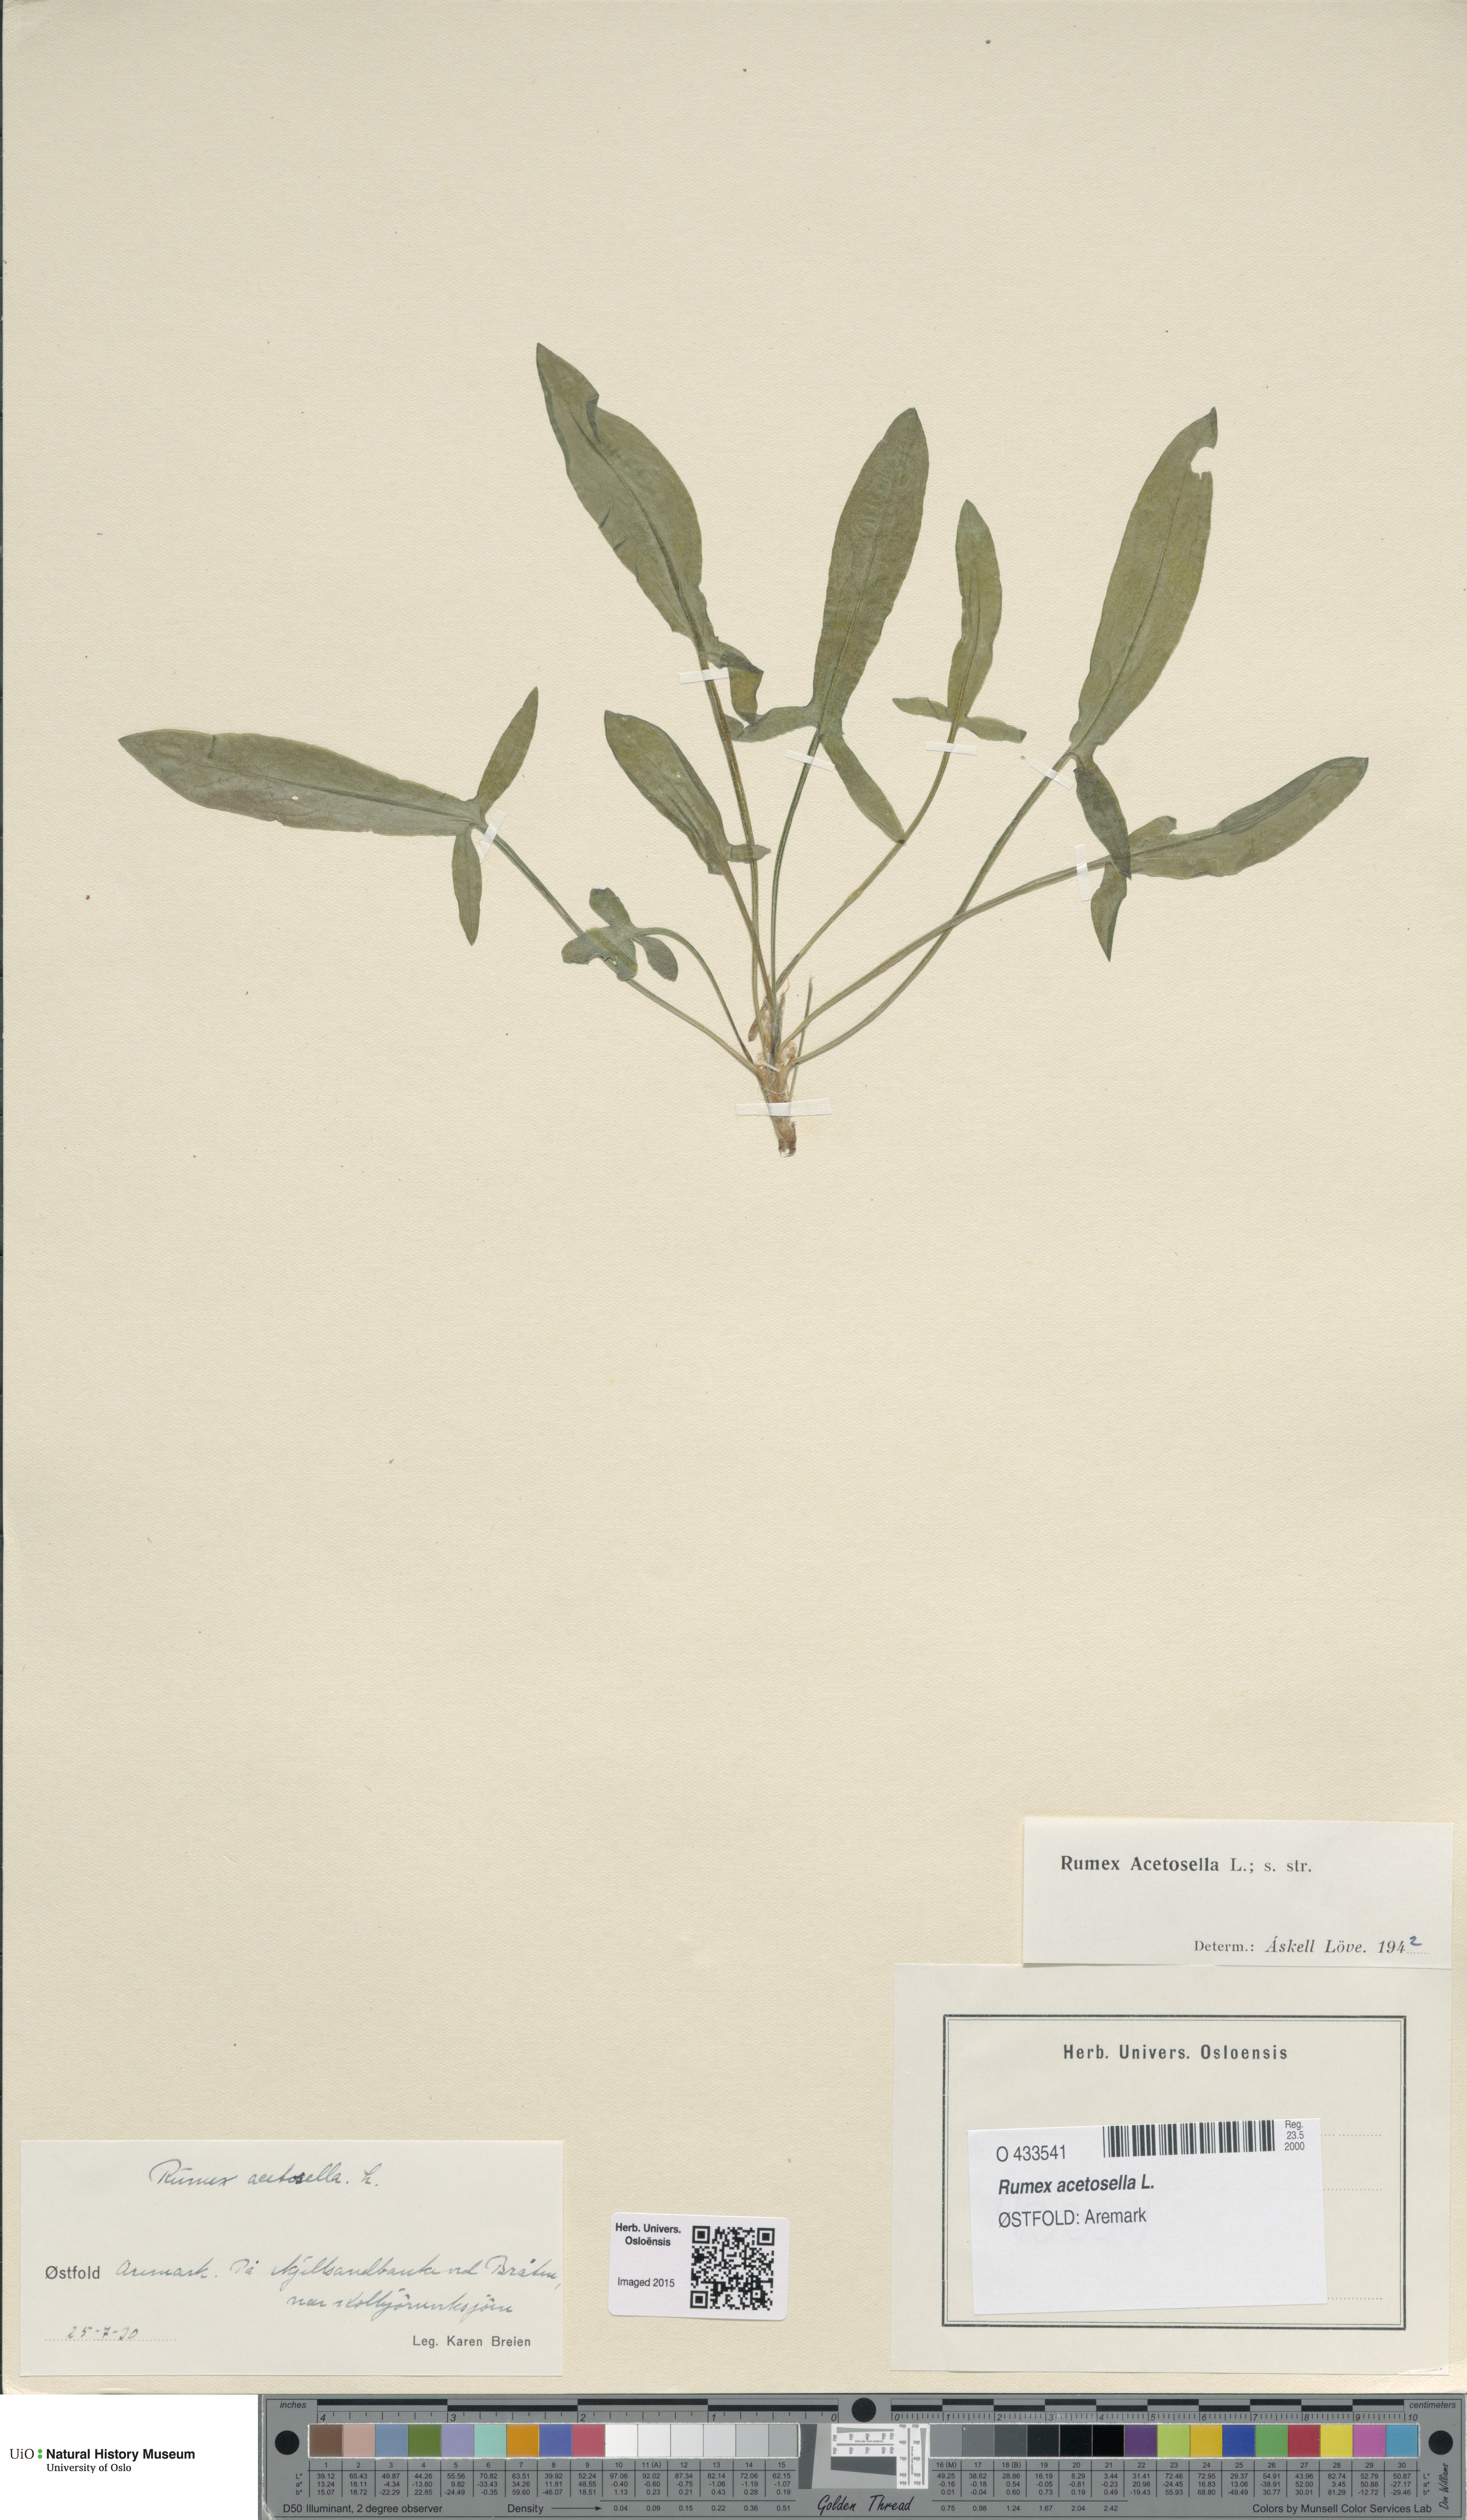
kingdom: Plantae
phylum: Tracheophyta
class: Magnoliopsida
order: Caryophyllales
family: Polygonaceae
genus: Rumex
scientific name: Rumex acetosella
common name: Common sheep sorrel
